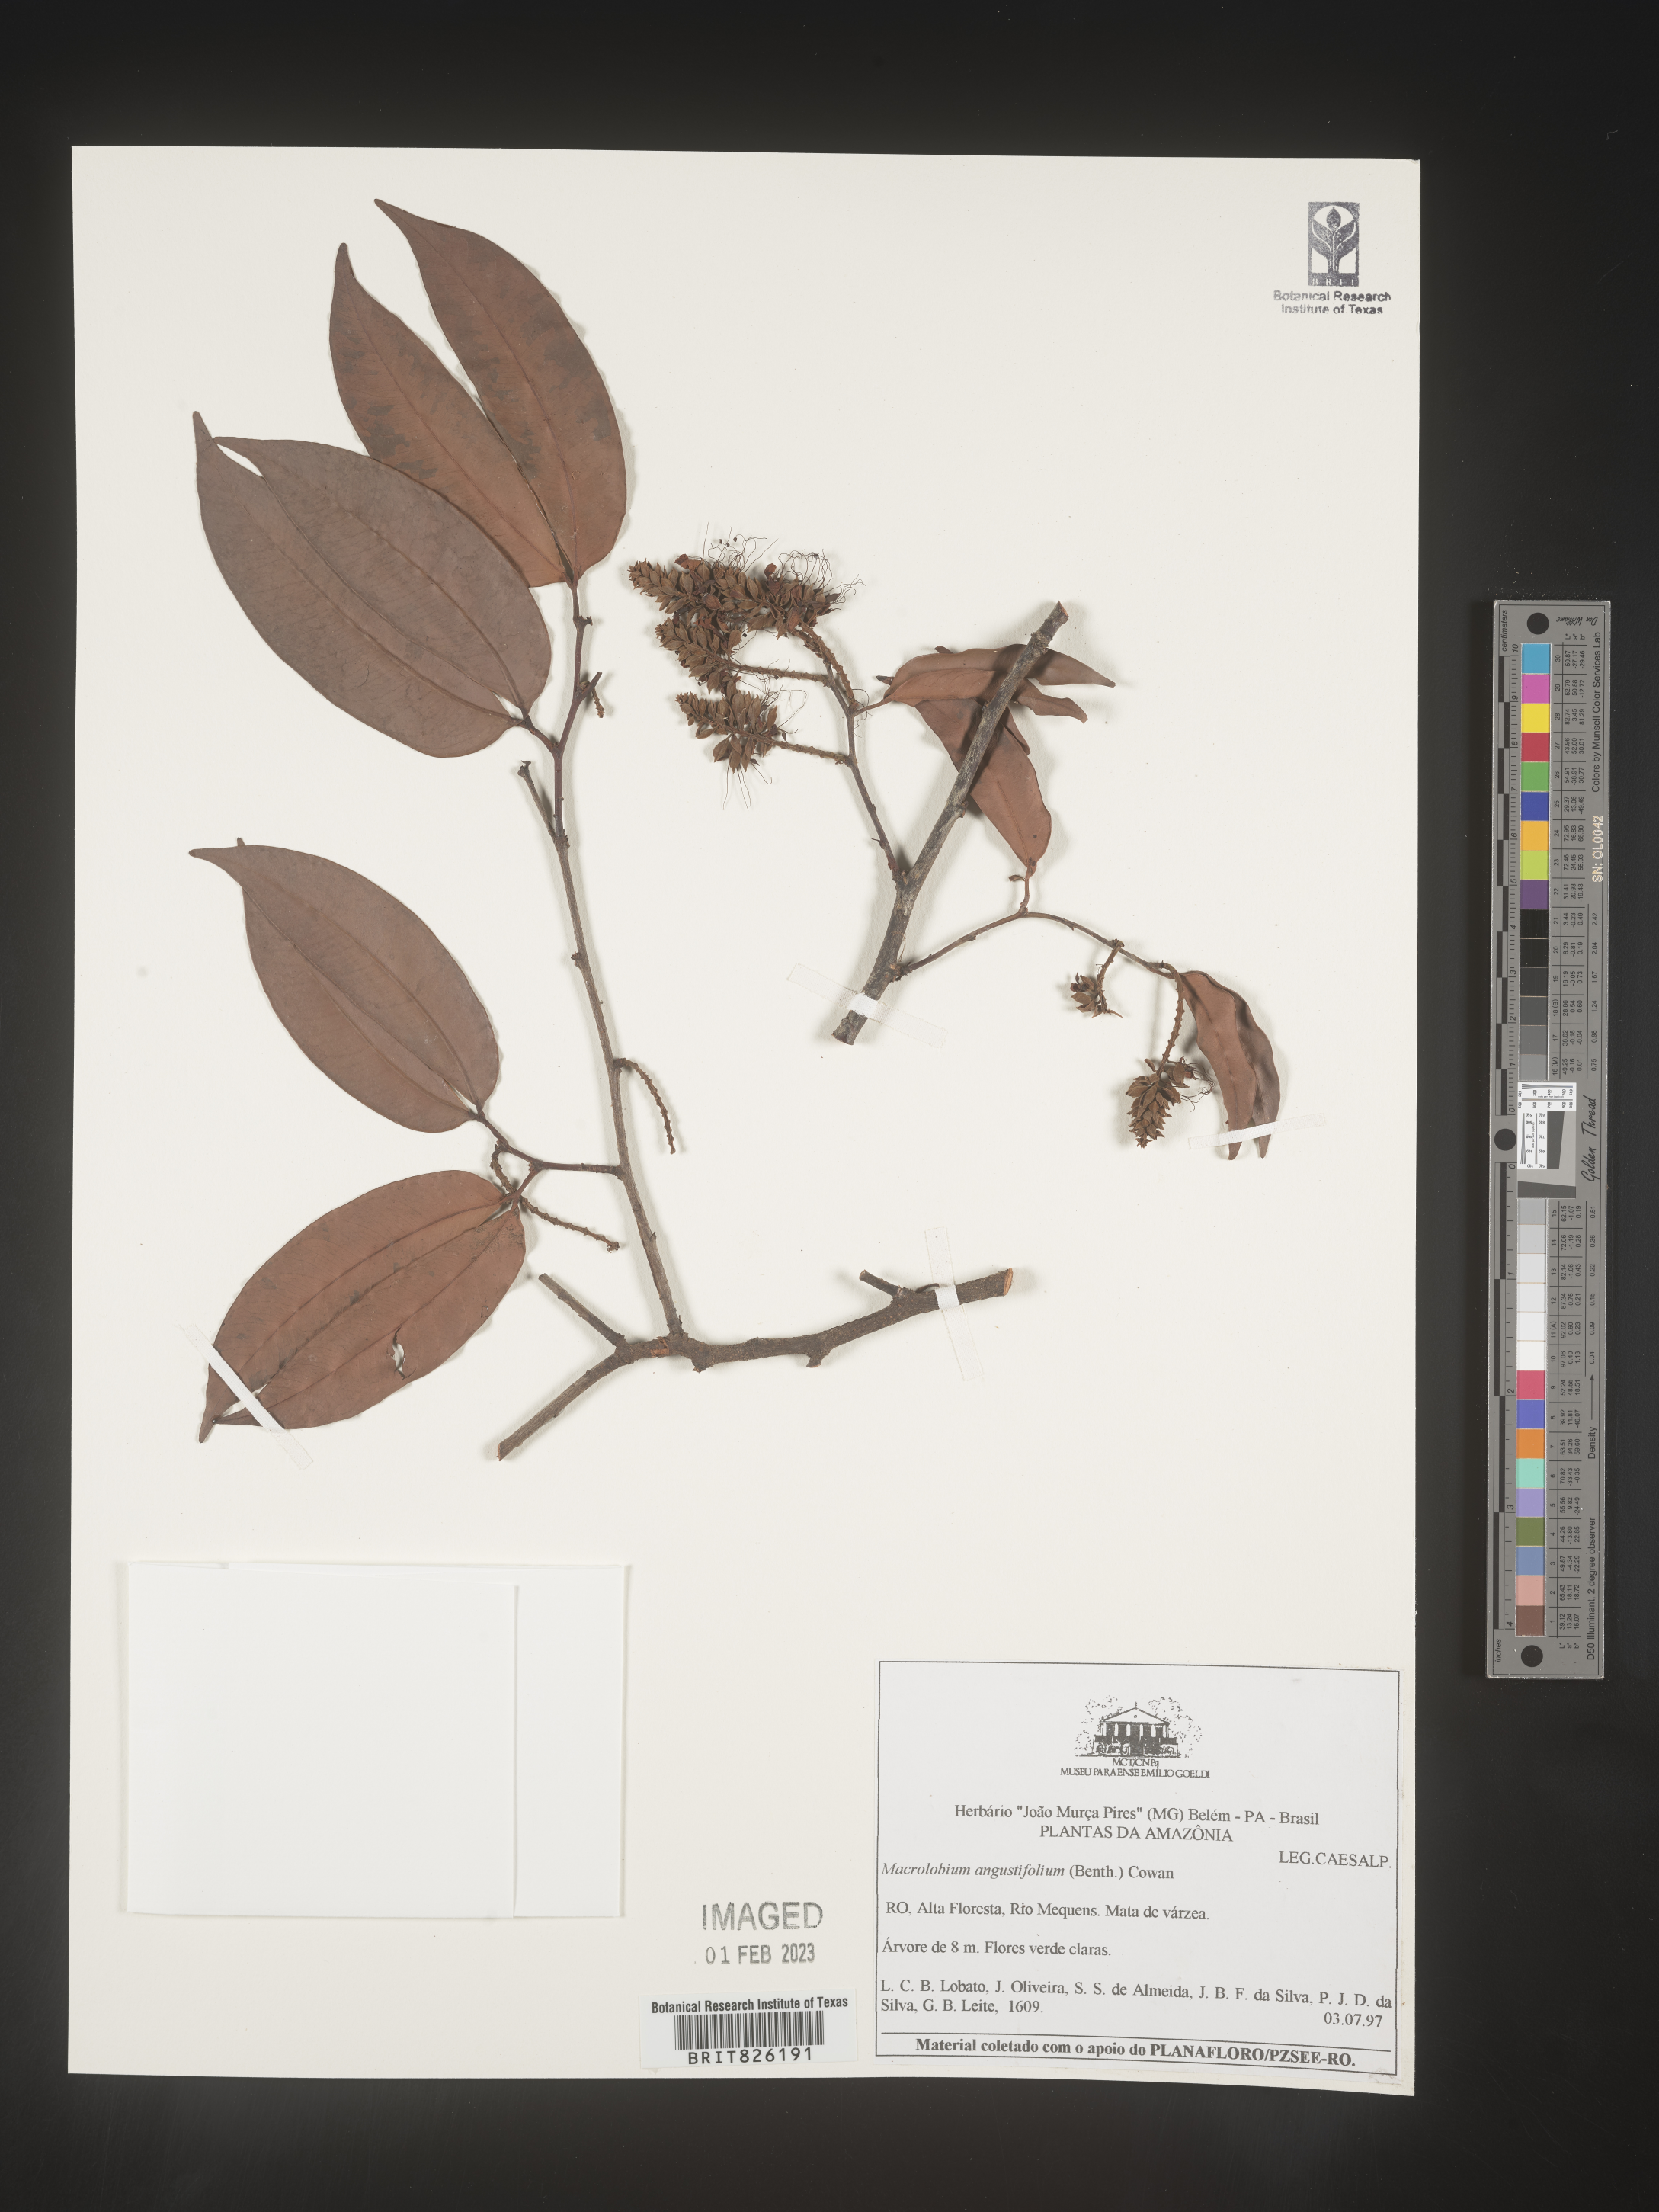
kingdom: Plantae
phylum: Tracheophyta
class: Magnoliopsida
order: Fabales
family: Fabaceae
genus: Macrolobium
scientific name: Macrolobium
